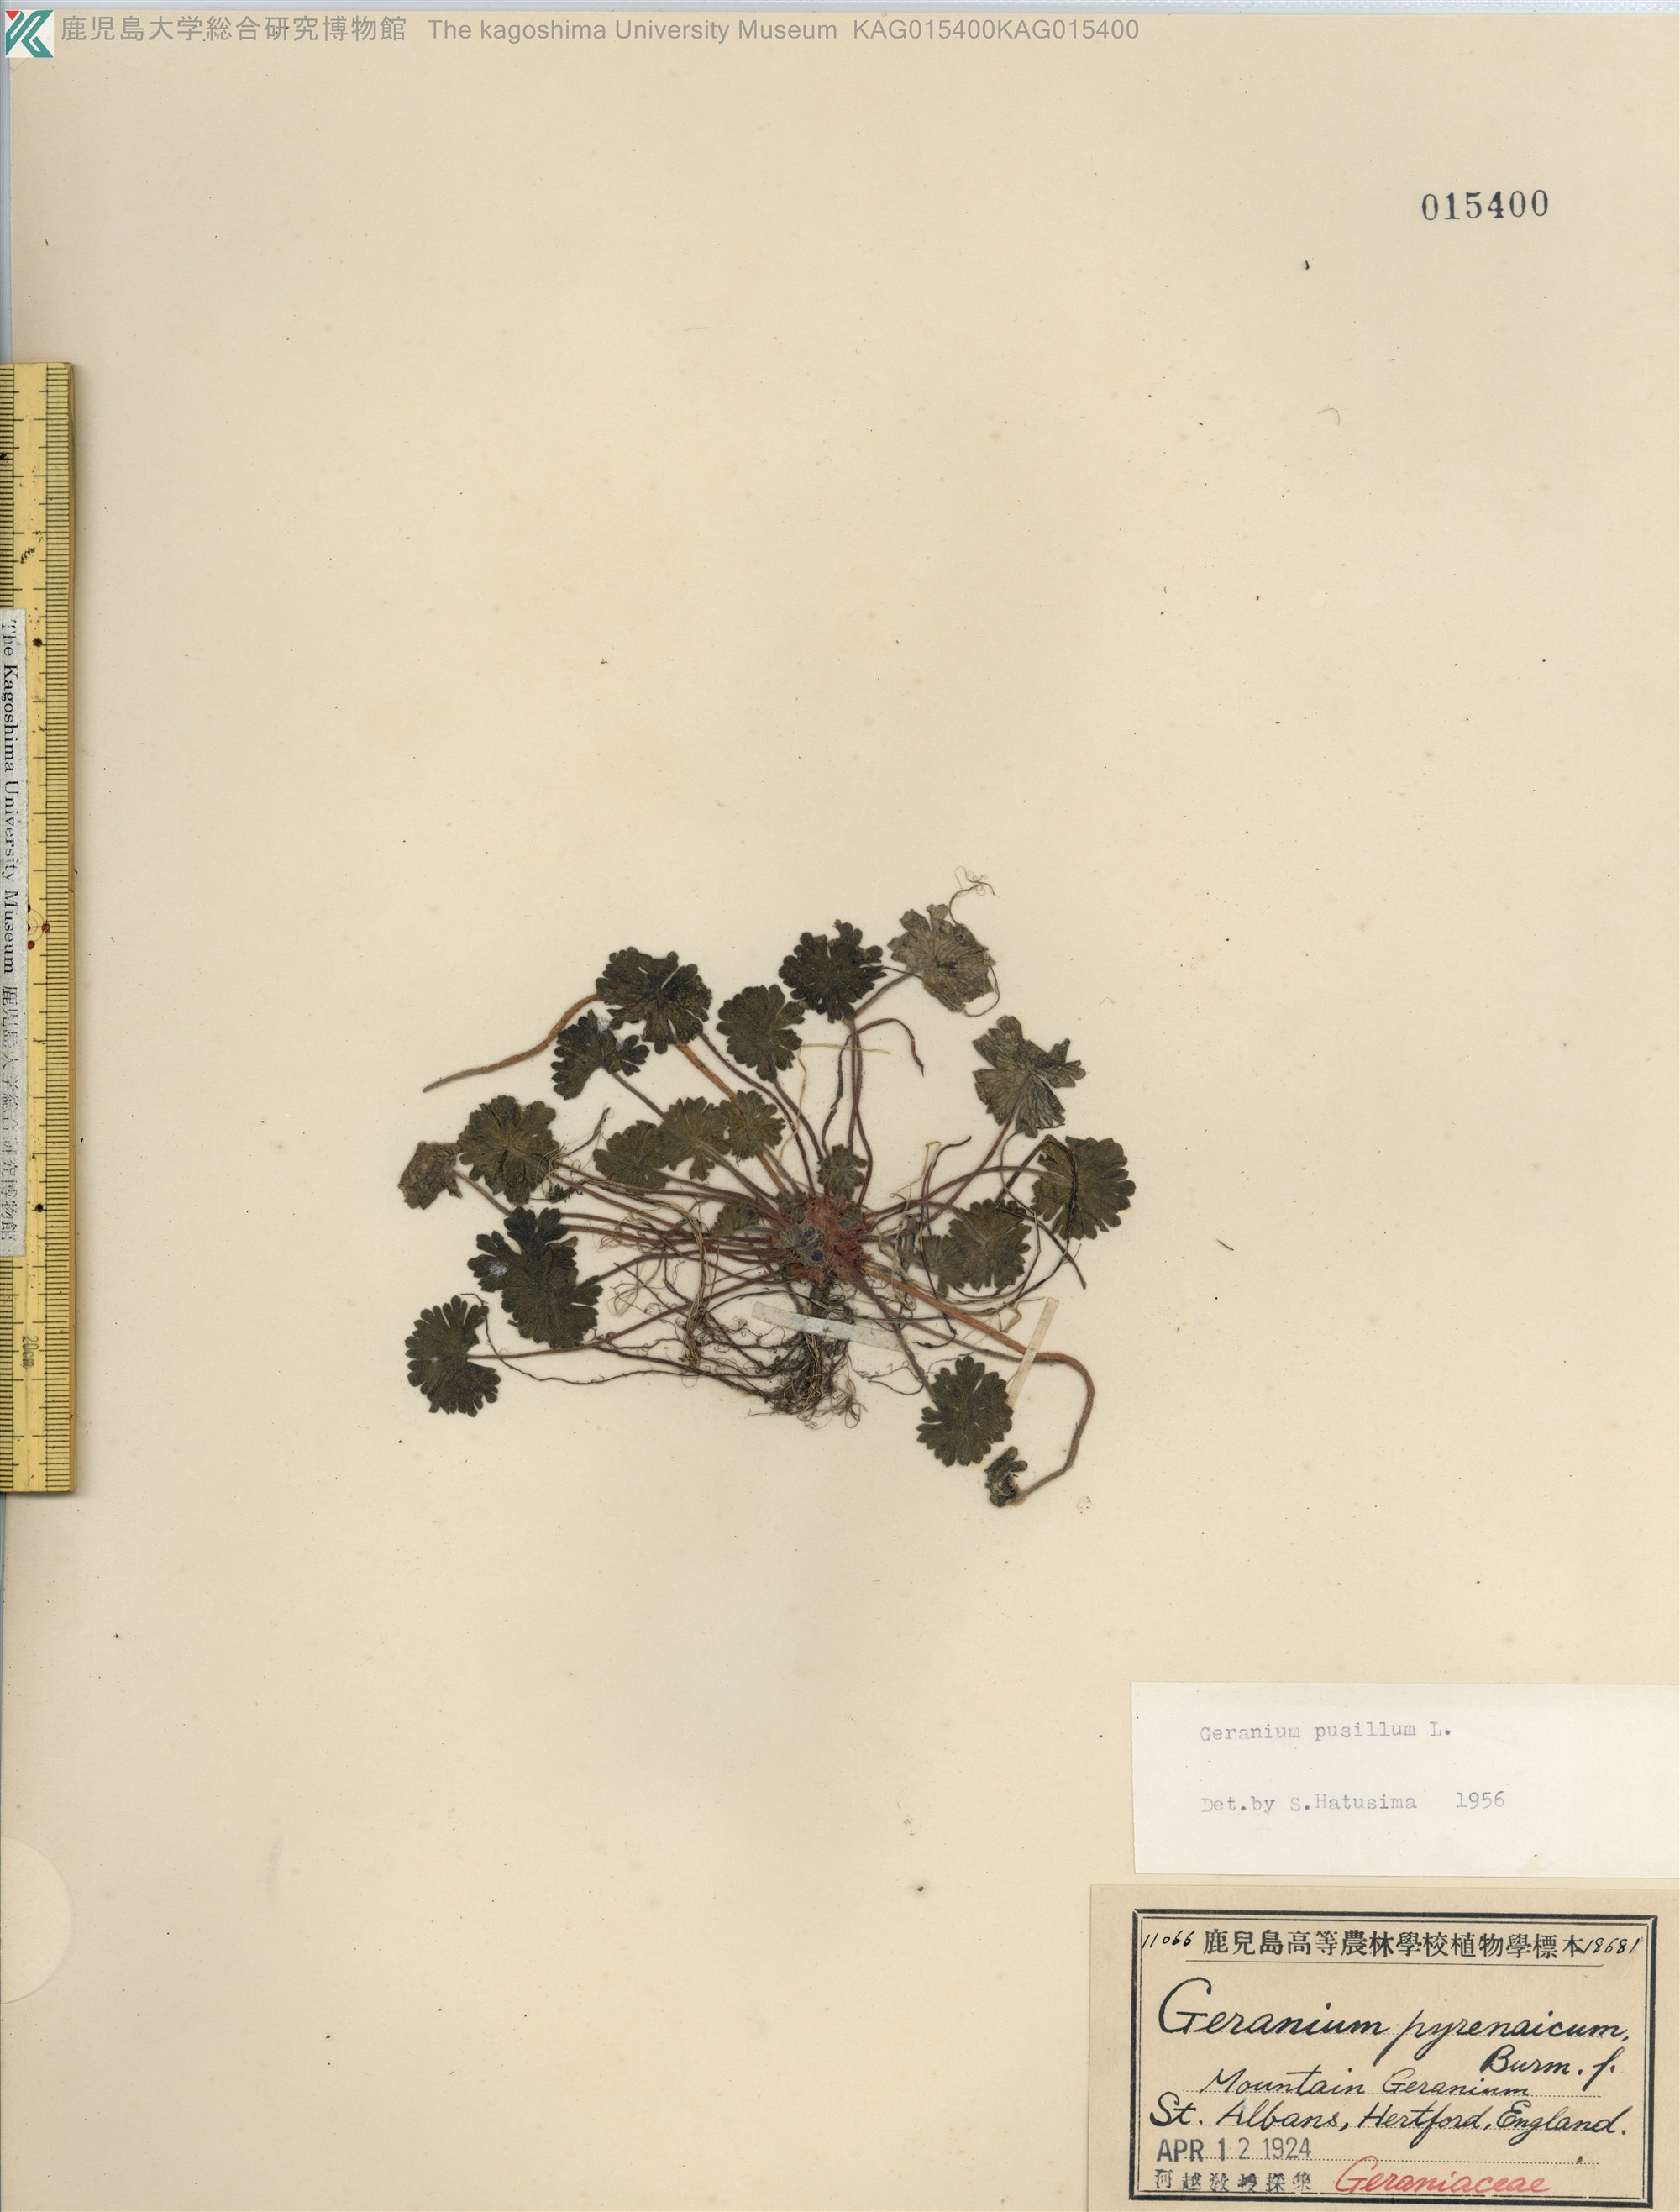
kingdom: Plantae
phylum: Tracheophyta
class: Magnoliopsida
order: Geraniales
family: Geraniaceae
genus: Geranium
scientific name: Geranium pusillum
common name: Small geranium
